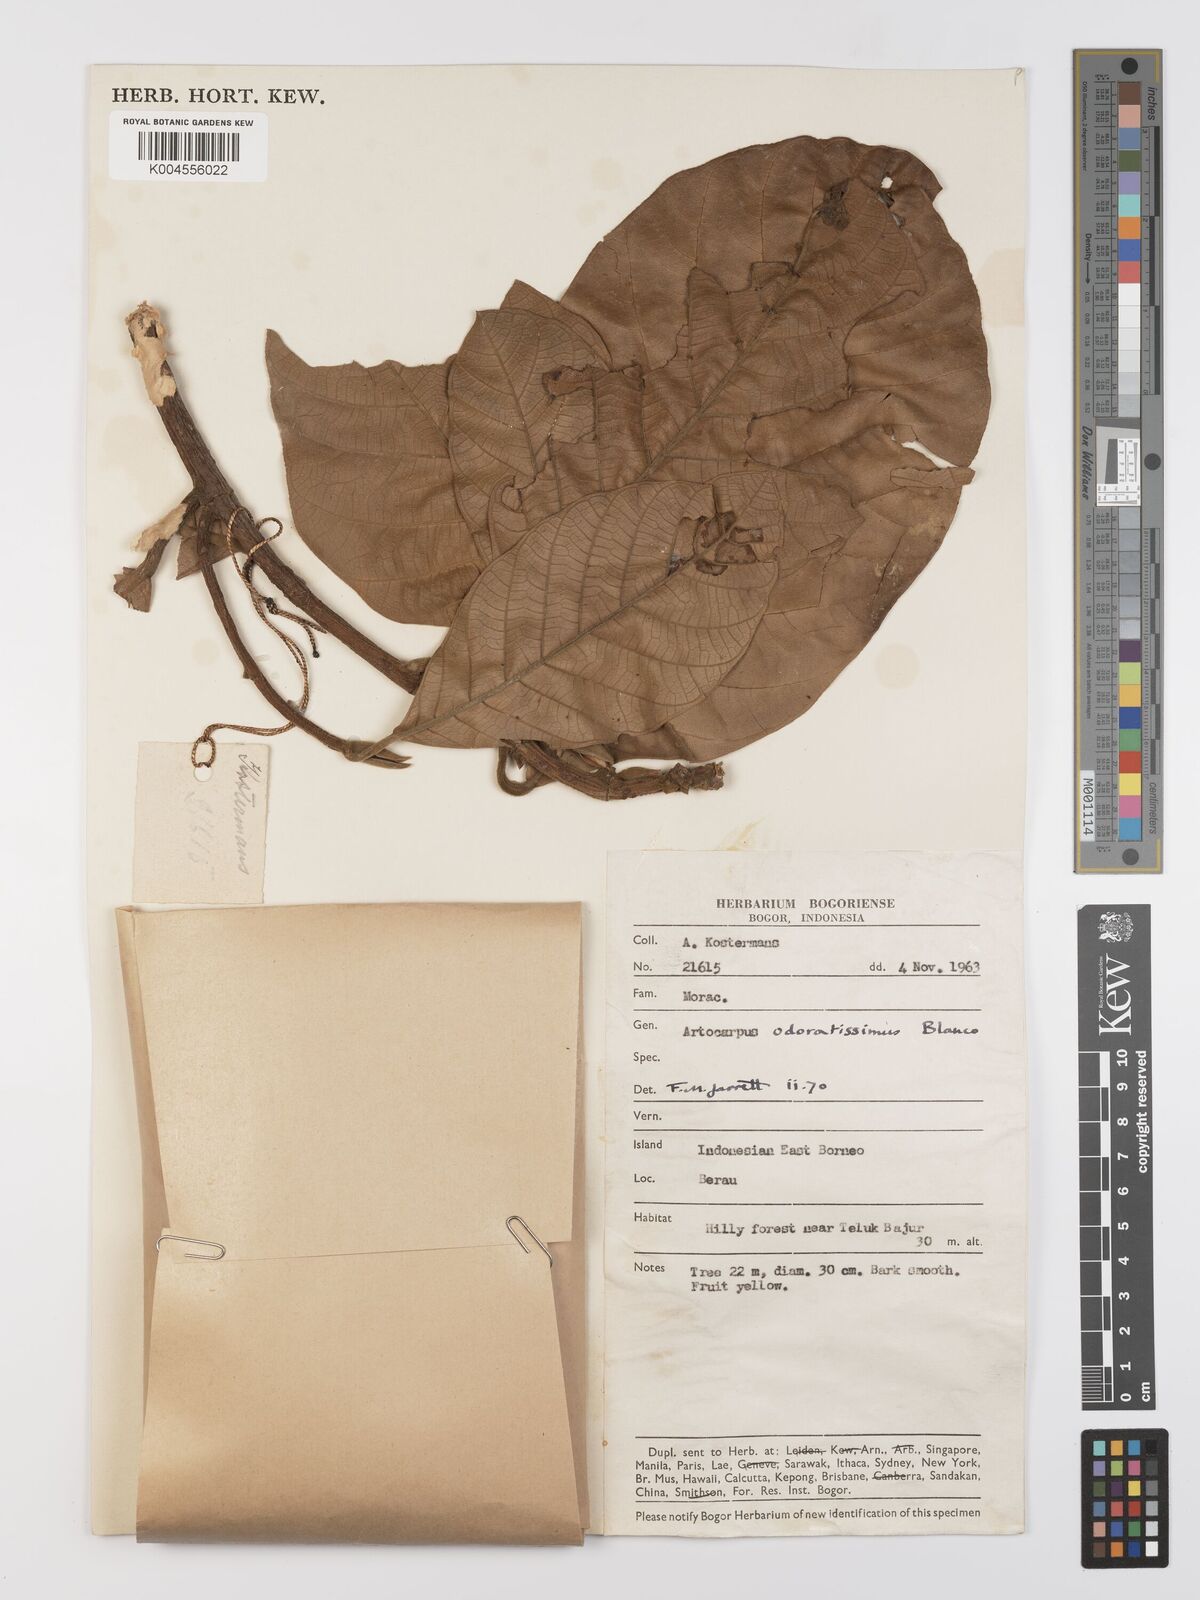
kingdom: Plantae
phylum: Tracheophyta
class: Magnoliopsida
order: Rosales
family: Moraceae
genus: Artocarpus
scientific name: Artocarpus odoratissimus
